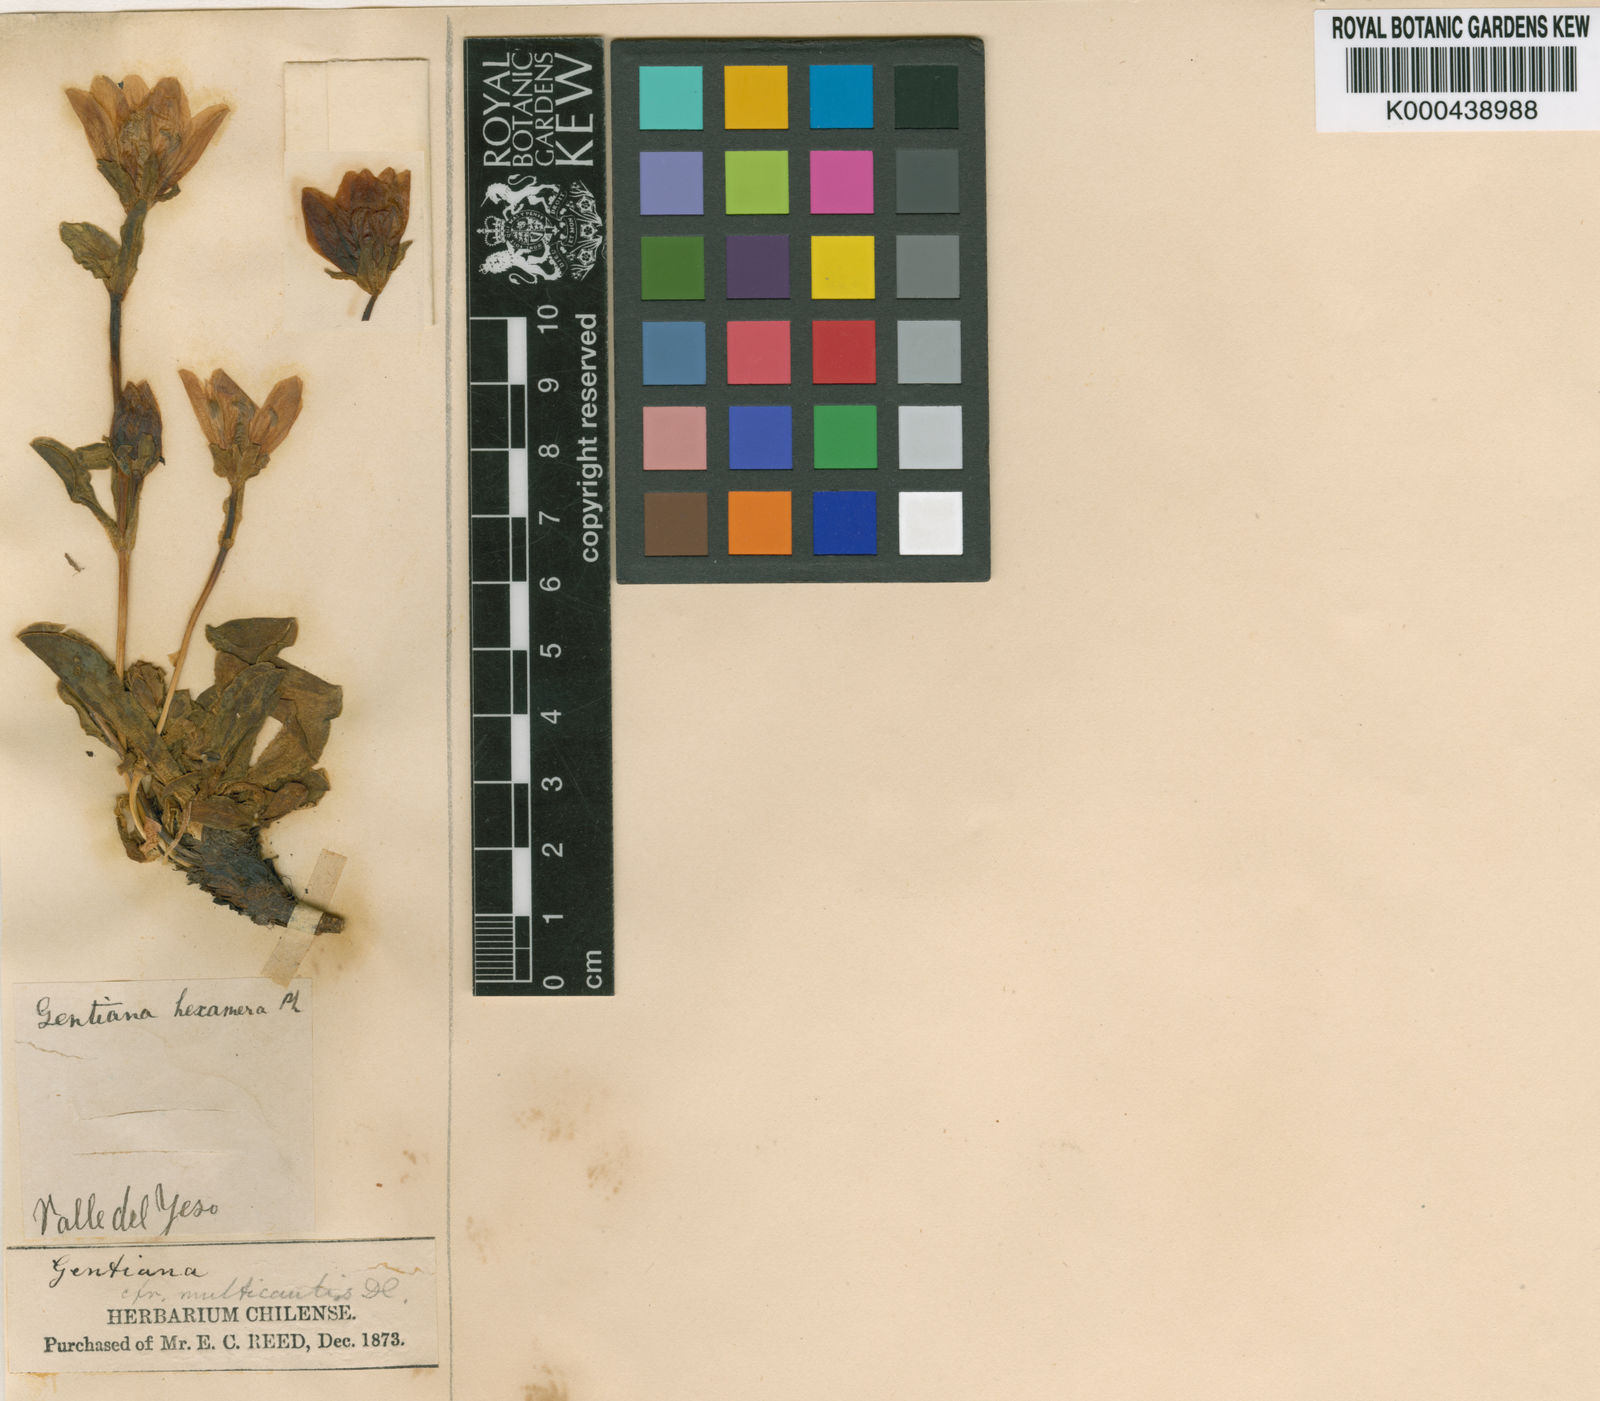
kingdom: Plantae
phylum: Tracheophyta
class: Magnoliopsida
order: Gentianales
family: Gentianaceae
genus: Gentianella
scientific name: Gentianella
